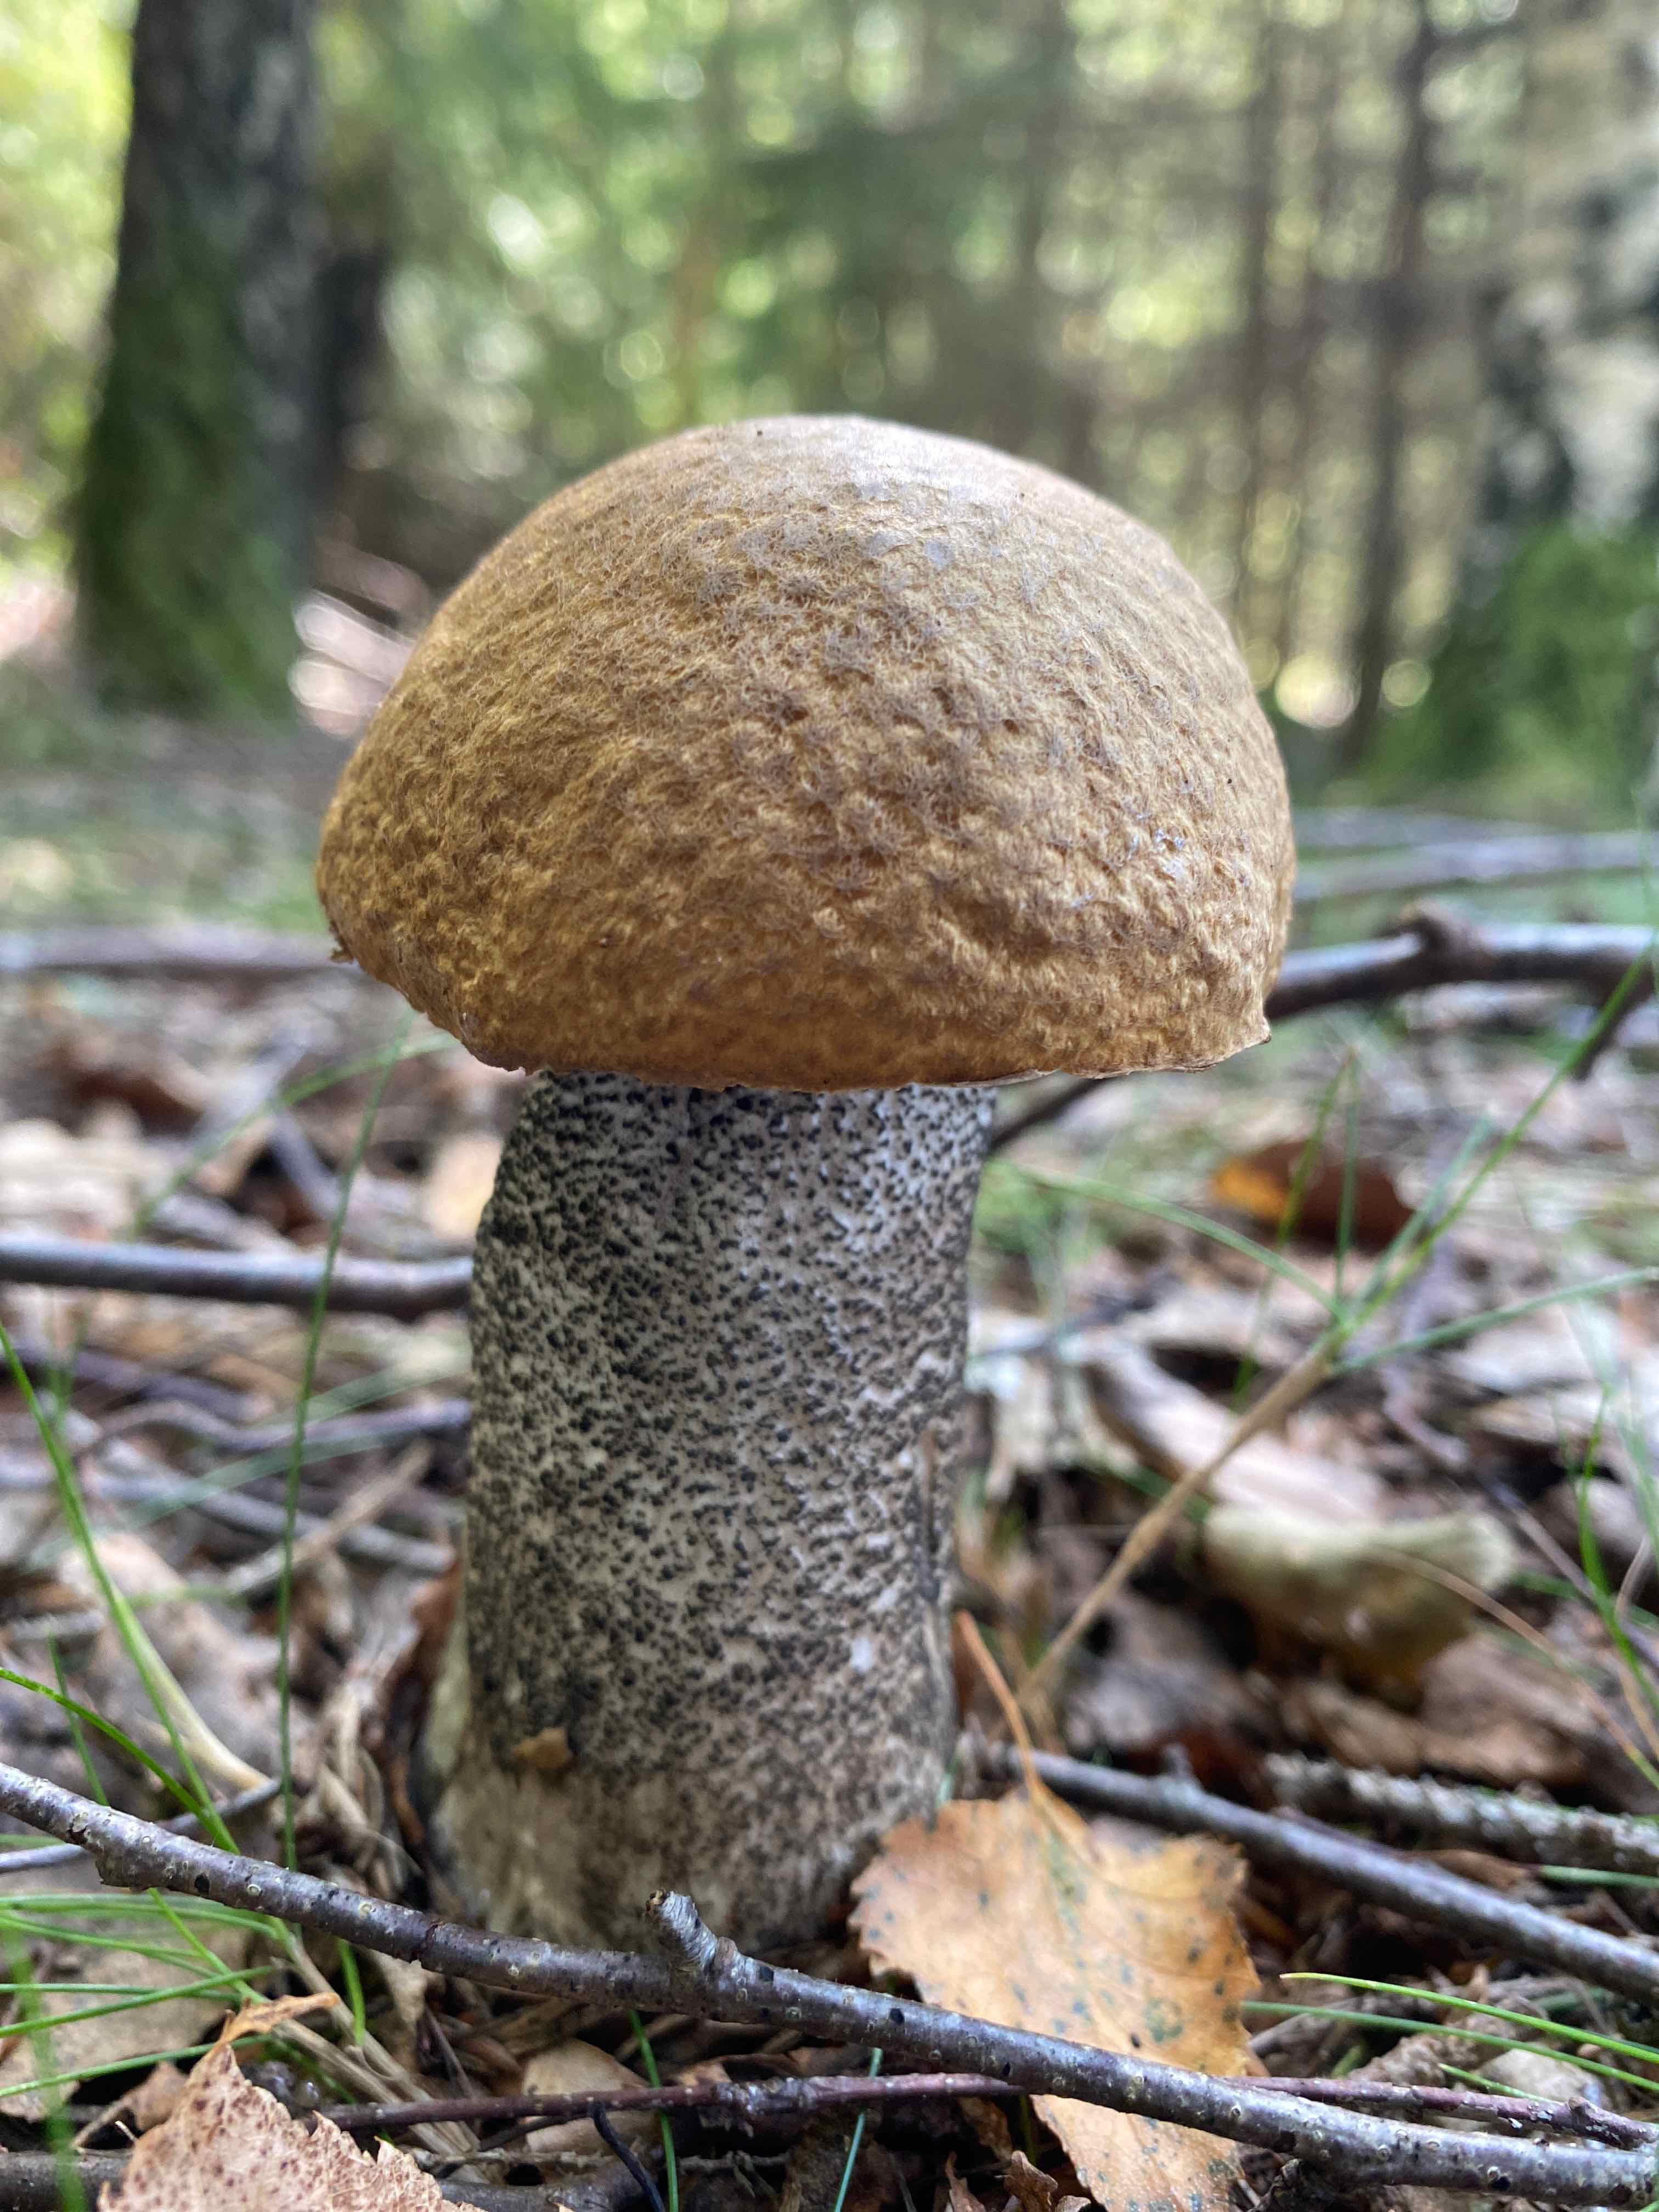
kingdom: Fungi
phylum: Basidiomycota
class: Agaricomycetes
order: Boletales
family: Boletaceae
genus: Leccinum
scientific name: Leccinum scabrum
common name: brun skælrørhat
